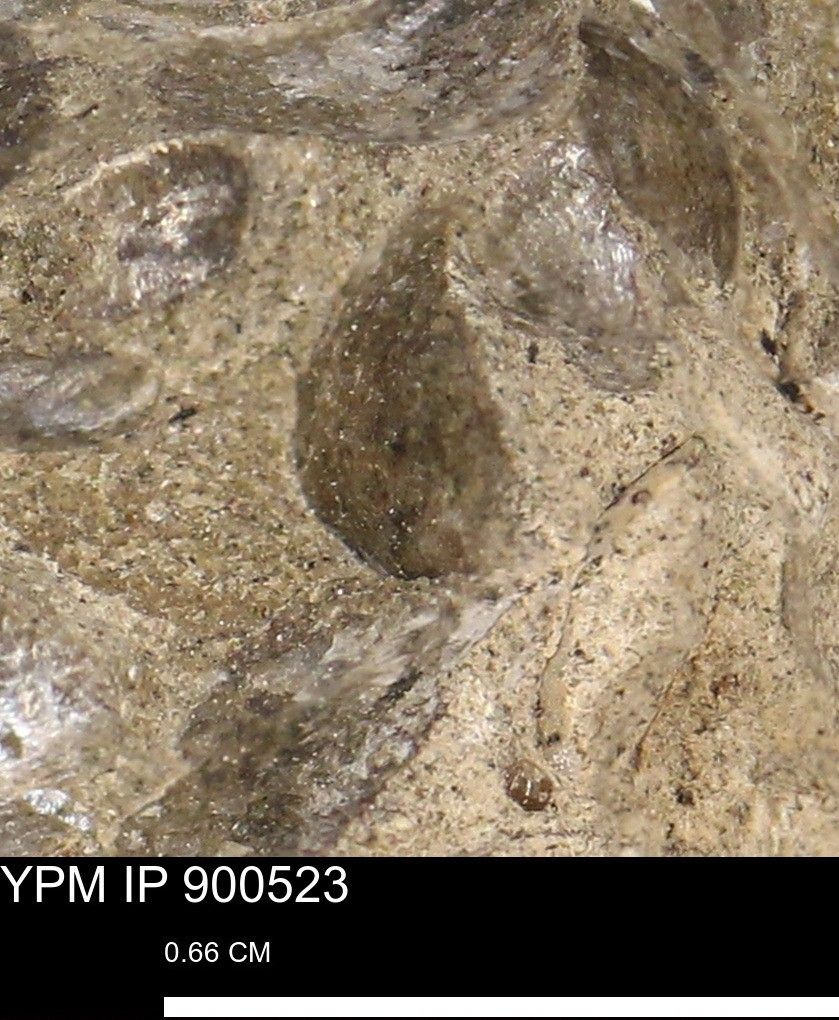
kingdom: Animalia
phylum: Mollusca
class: Bivalvia
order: Pectinida
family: Anomiidae
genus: Anomia
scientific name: Anomia
